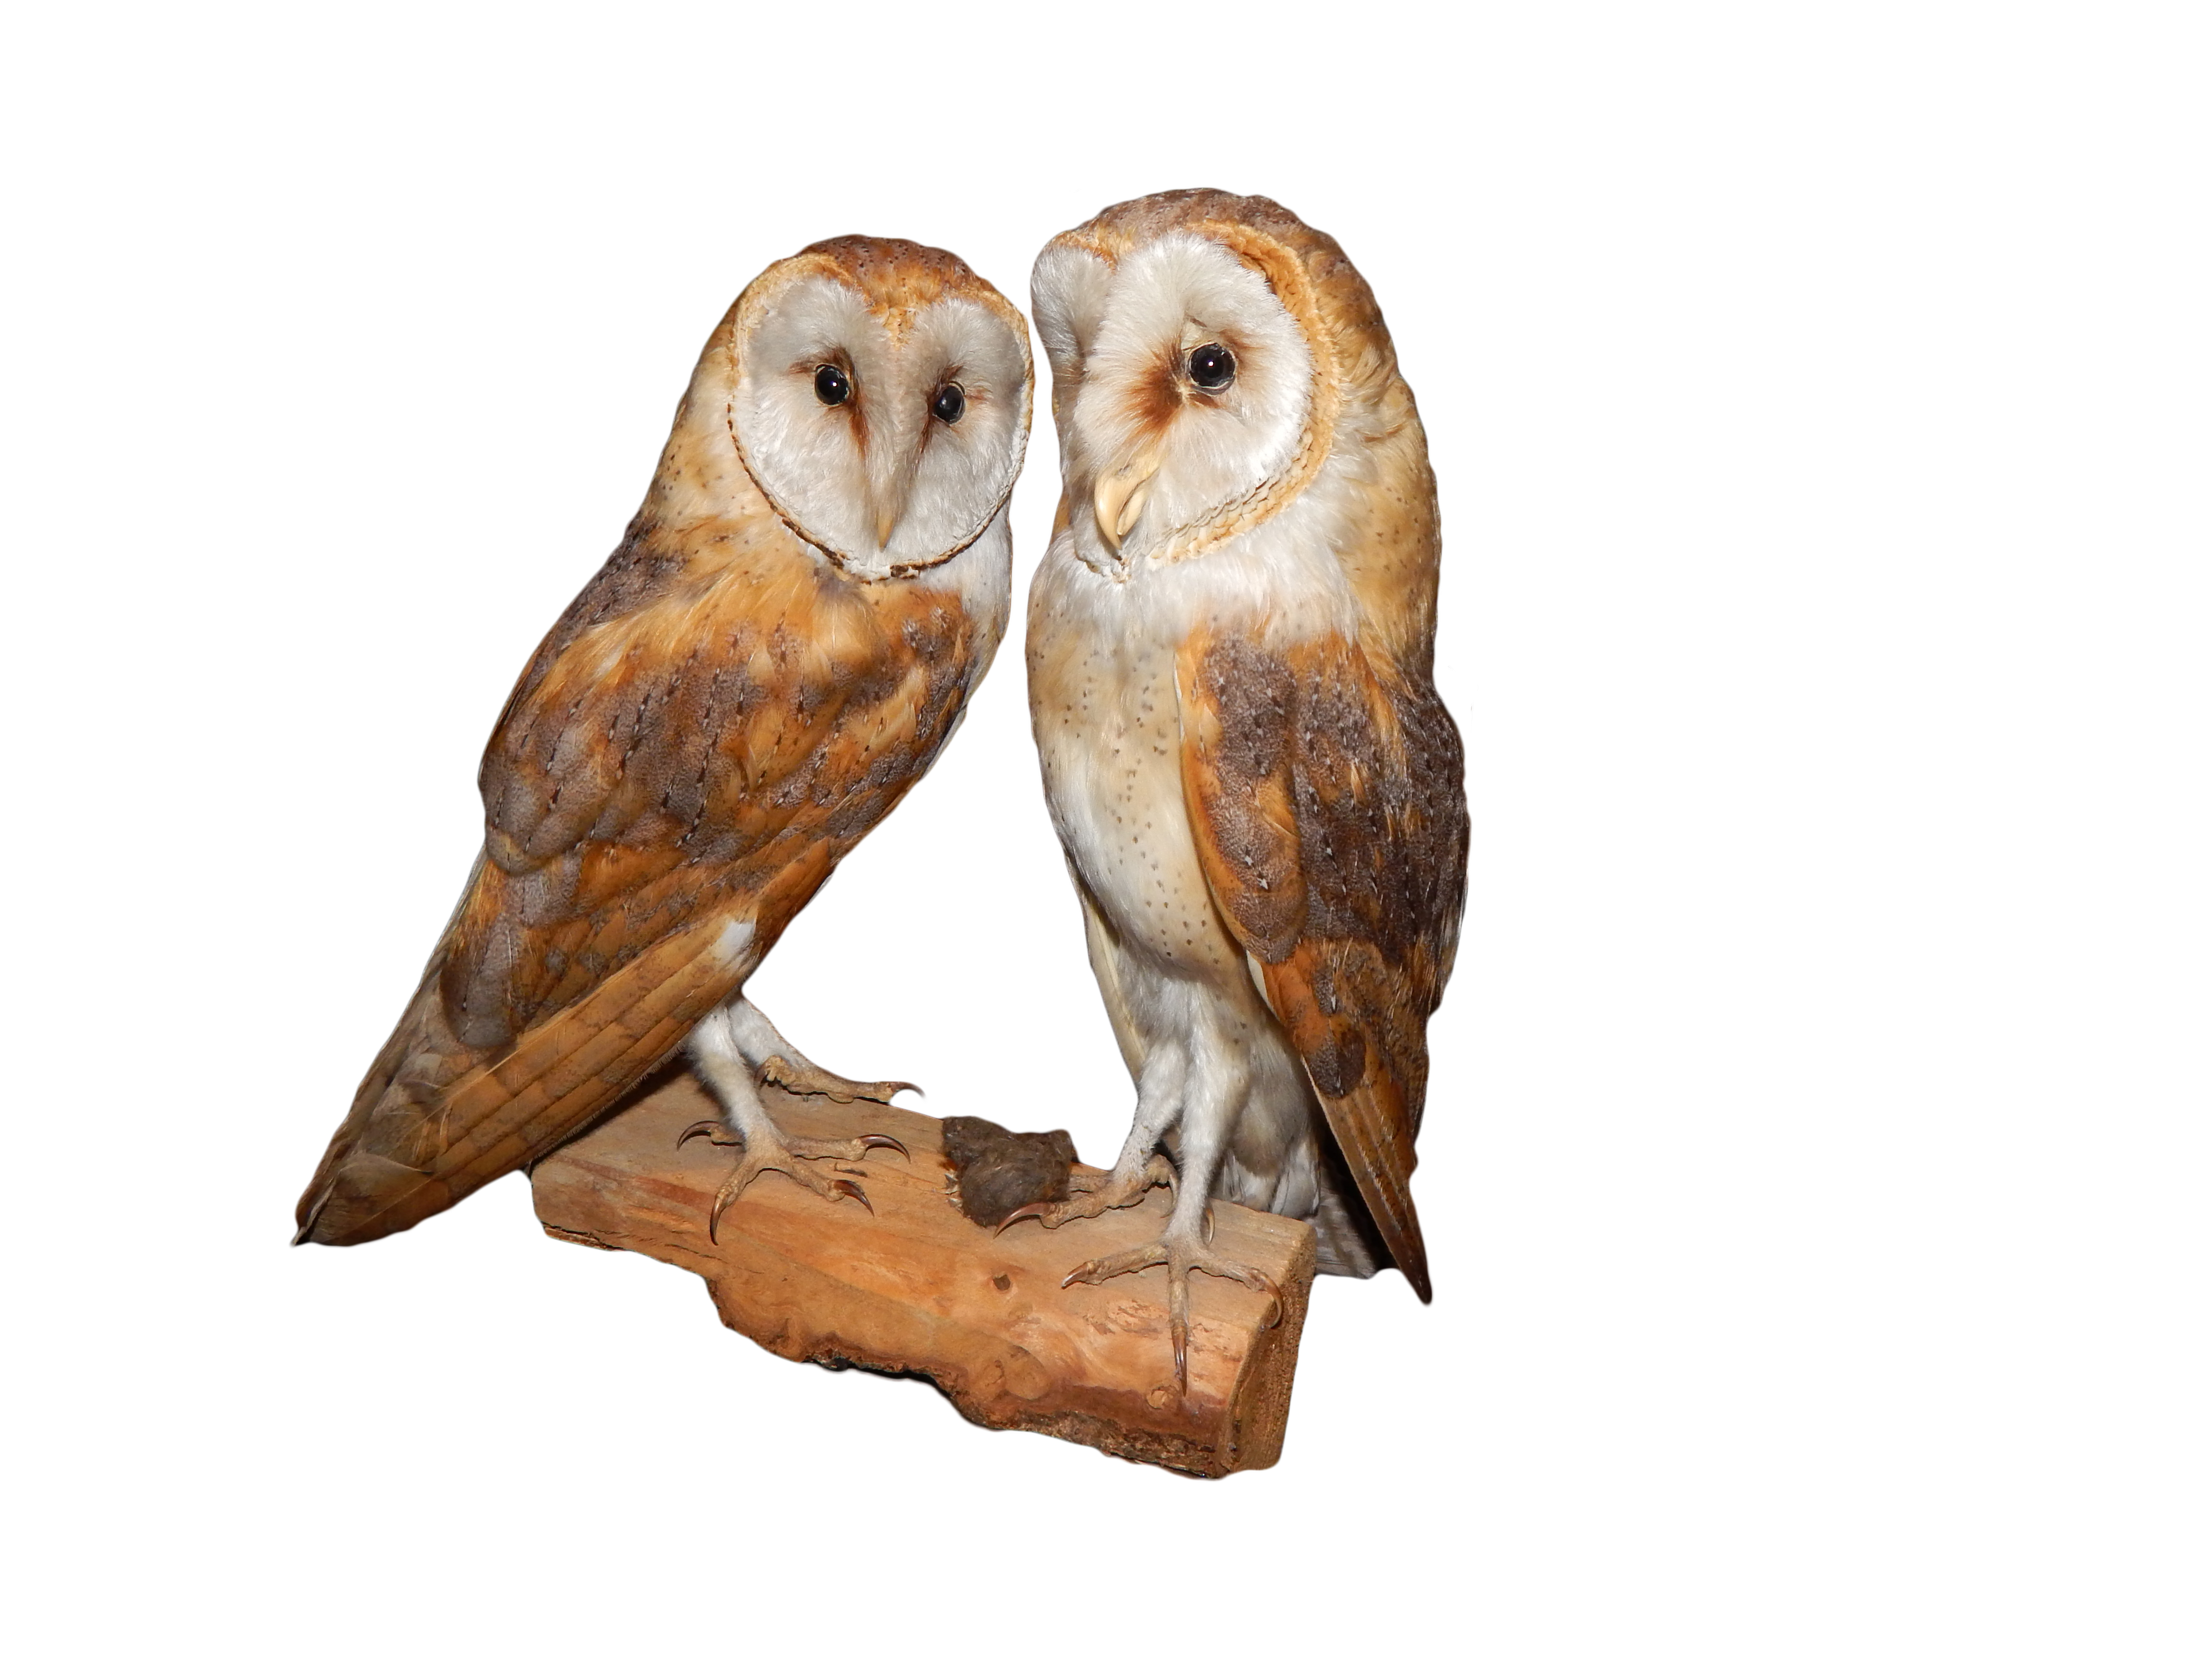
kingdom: Animalia
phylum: Chordata
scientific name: Chordata
